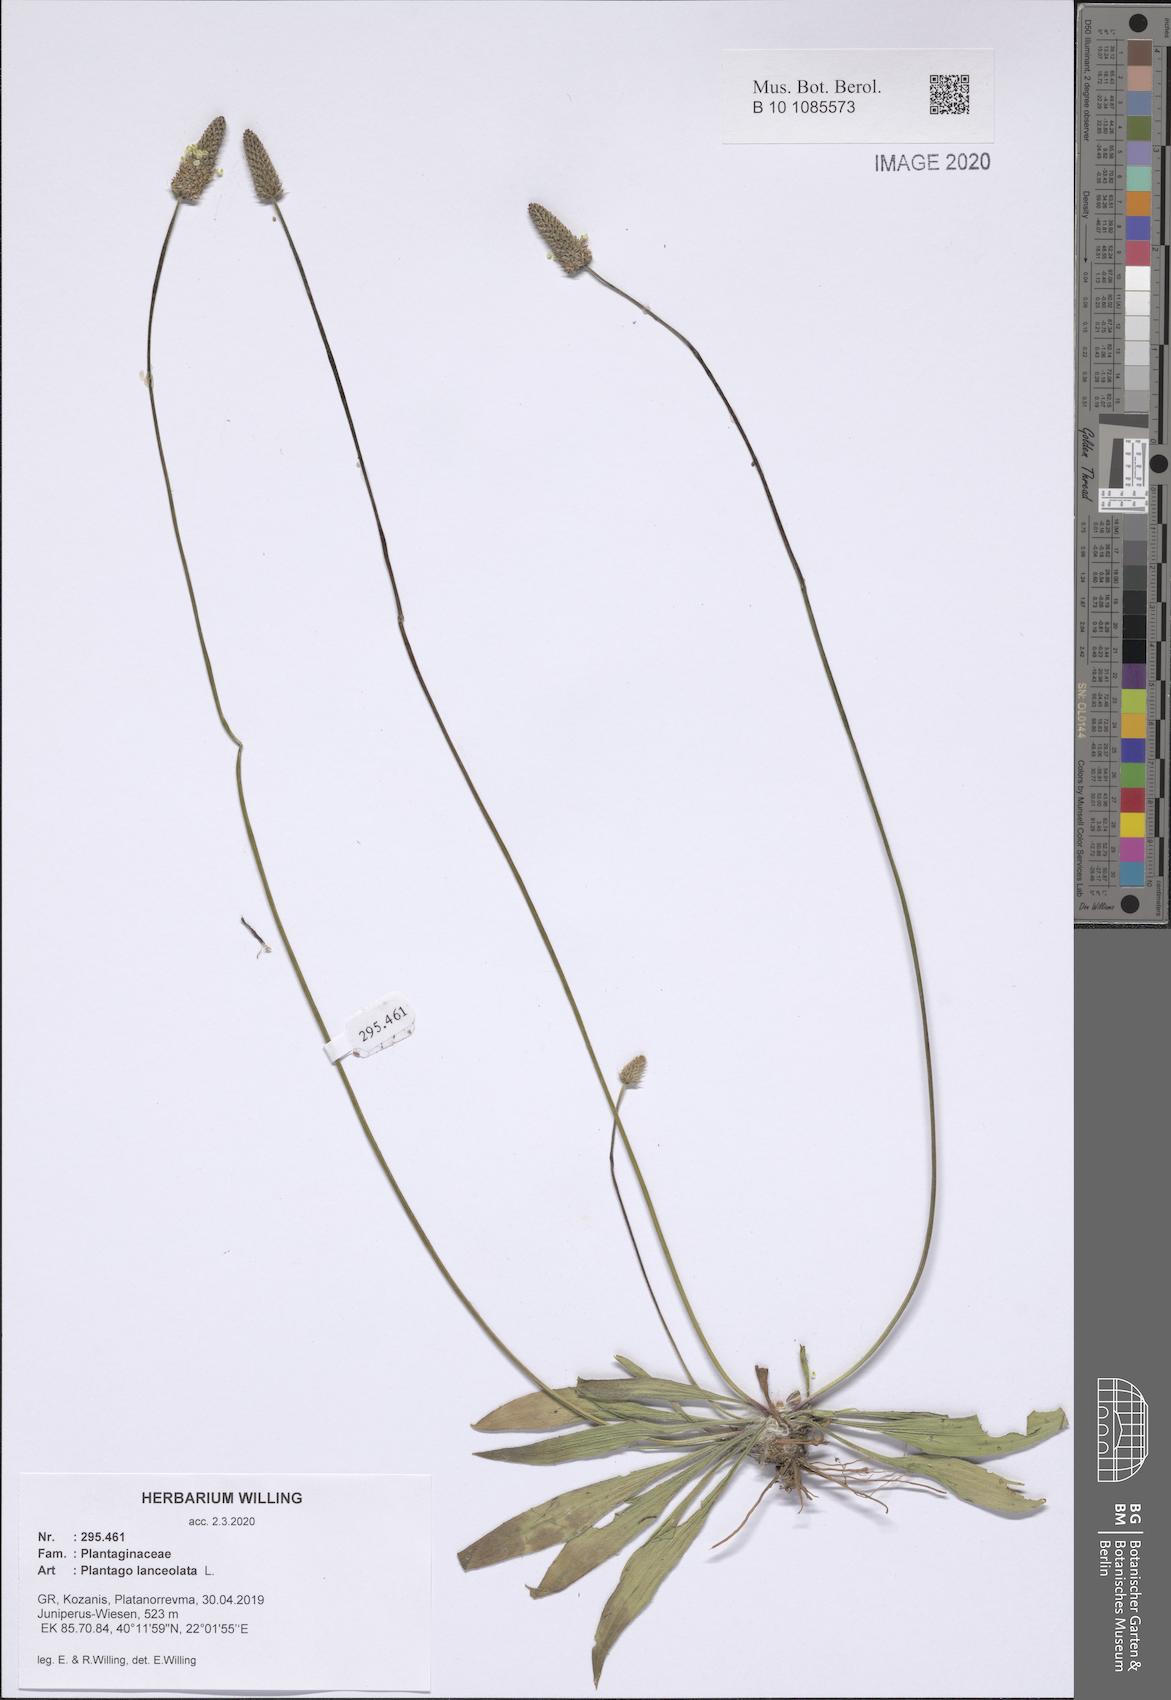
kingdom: Plantae
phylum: Tracheophyta
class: Magnoliopsida
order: Lamiales
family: Plantaginaceae
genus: Plantago
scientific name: Plantago lanceolata
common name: Ribwort plantain
